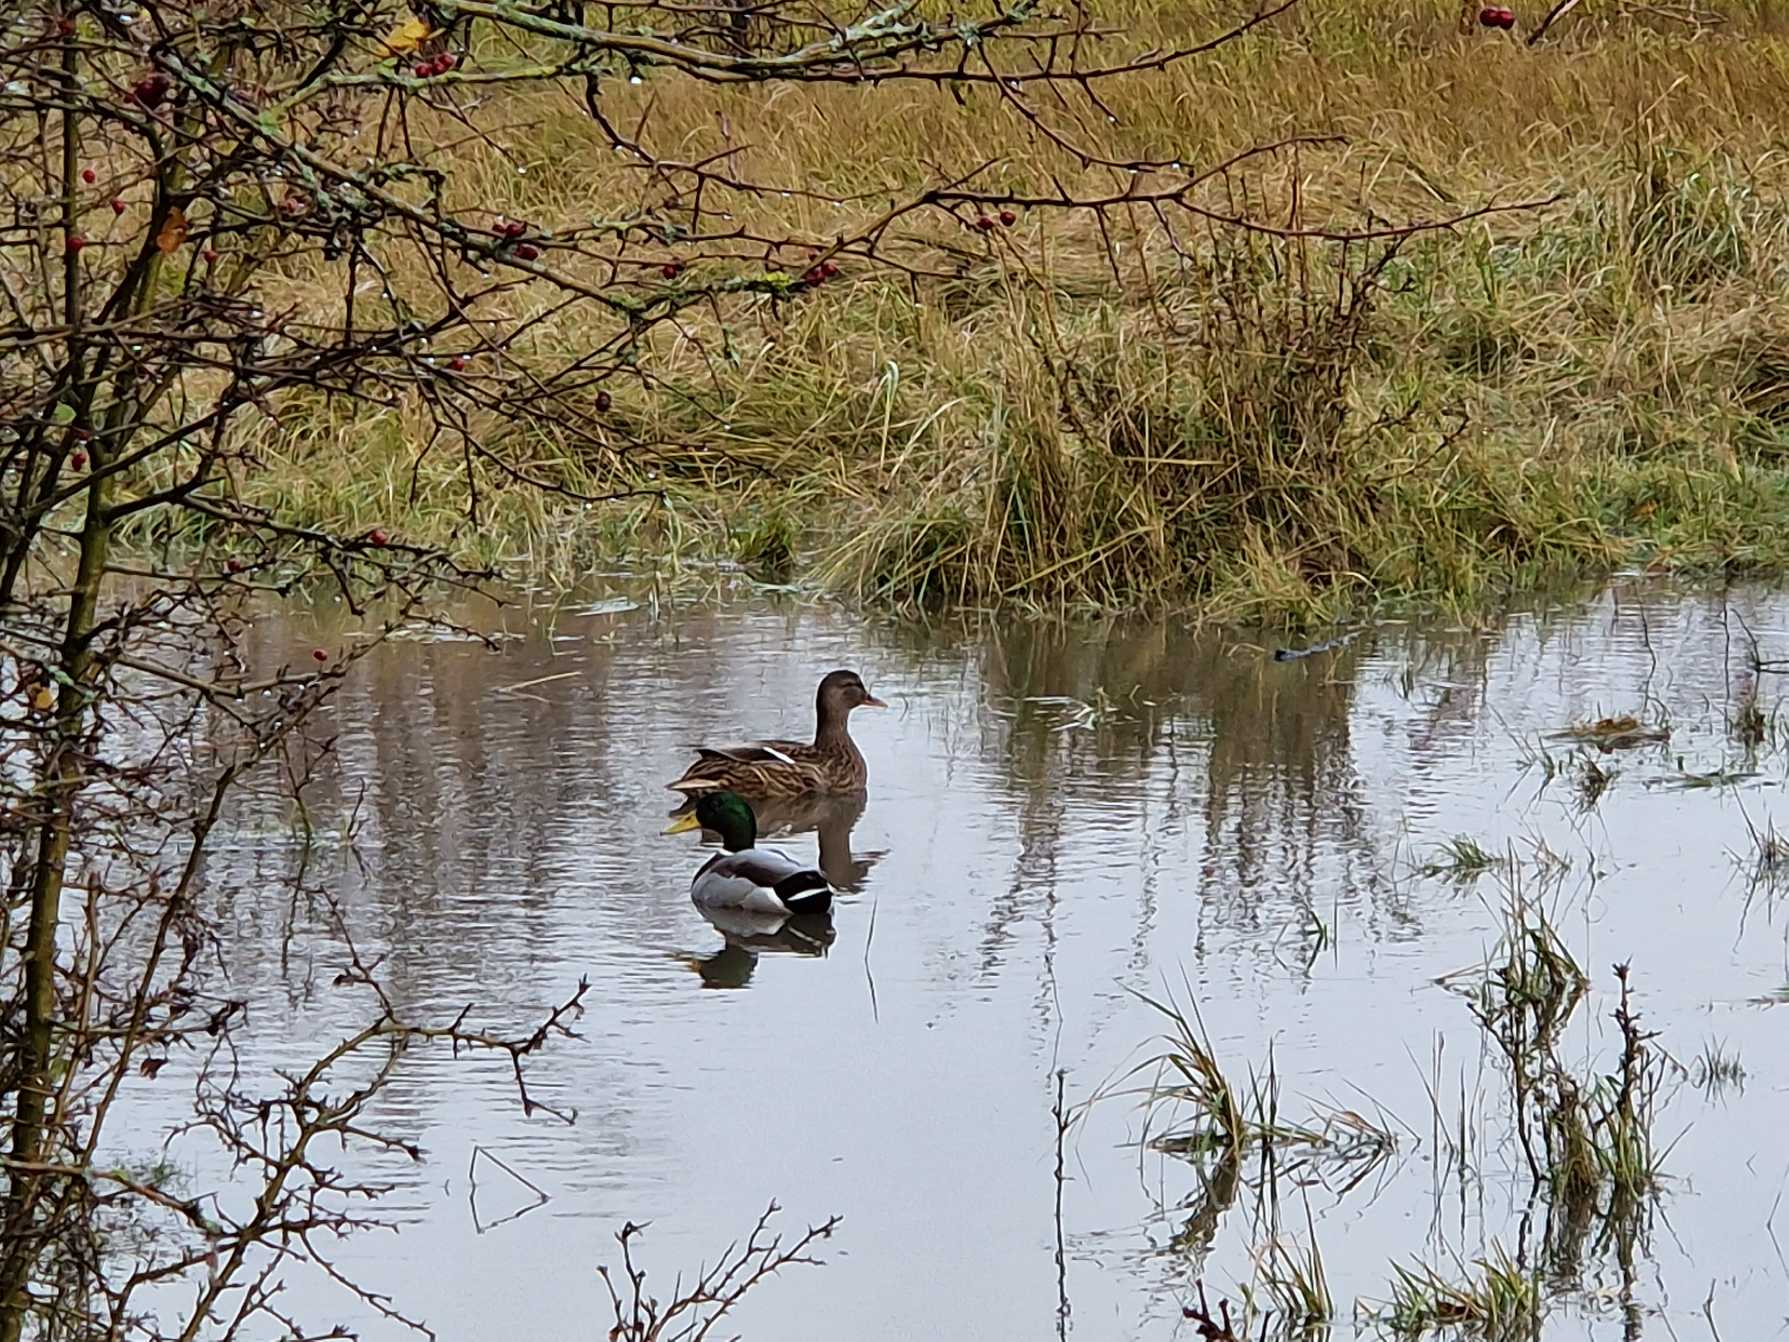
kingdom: Animalia
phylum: Chordata
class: Aves
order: Anseriformes
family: Anatidae
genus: Anas
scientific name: Anas platyrhynchos
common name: Gråand
